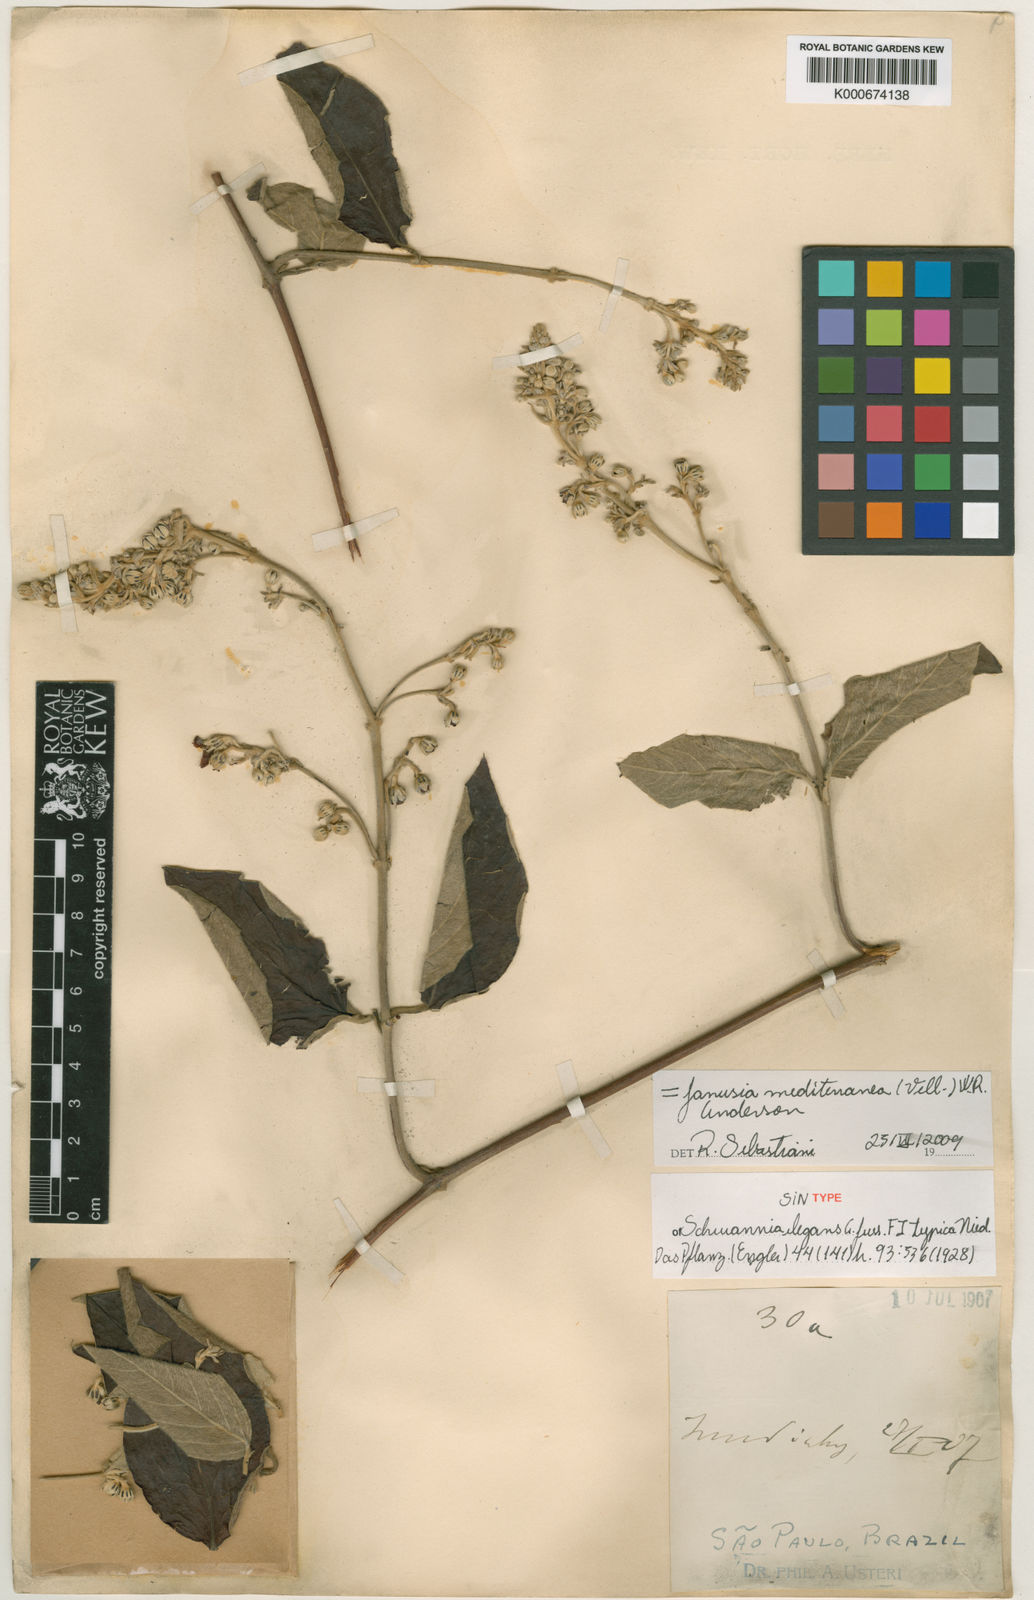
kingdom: Plantae
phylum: Tracheophyta
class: Magnoliopsida
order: Malpighiales
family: Malpighiaceae
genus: Janusia
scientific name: Janusia mediterranea
